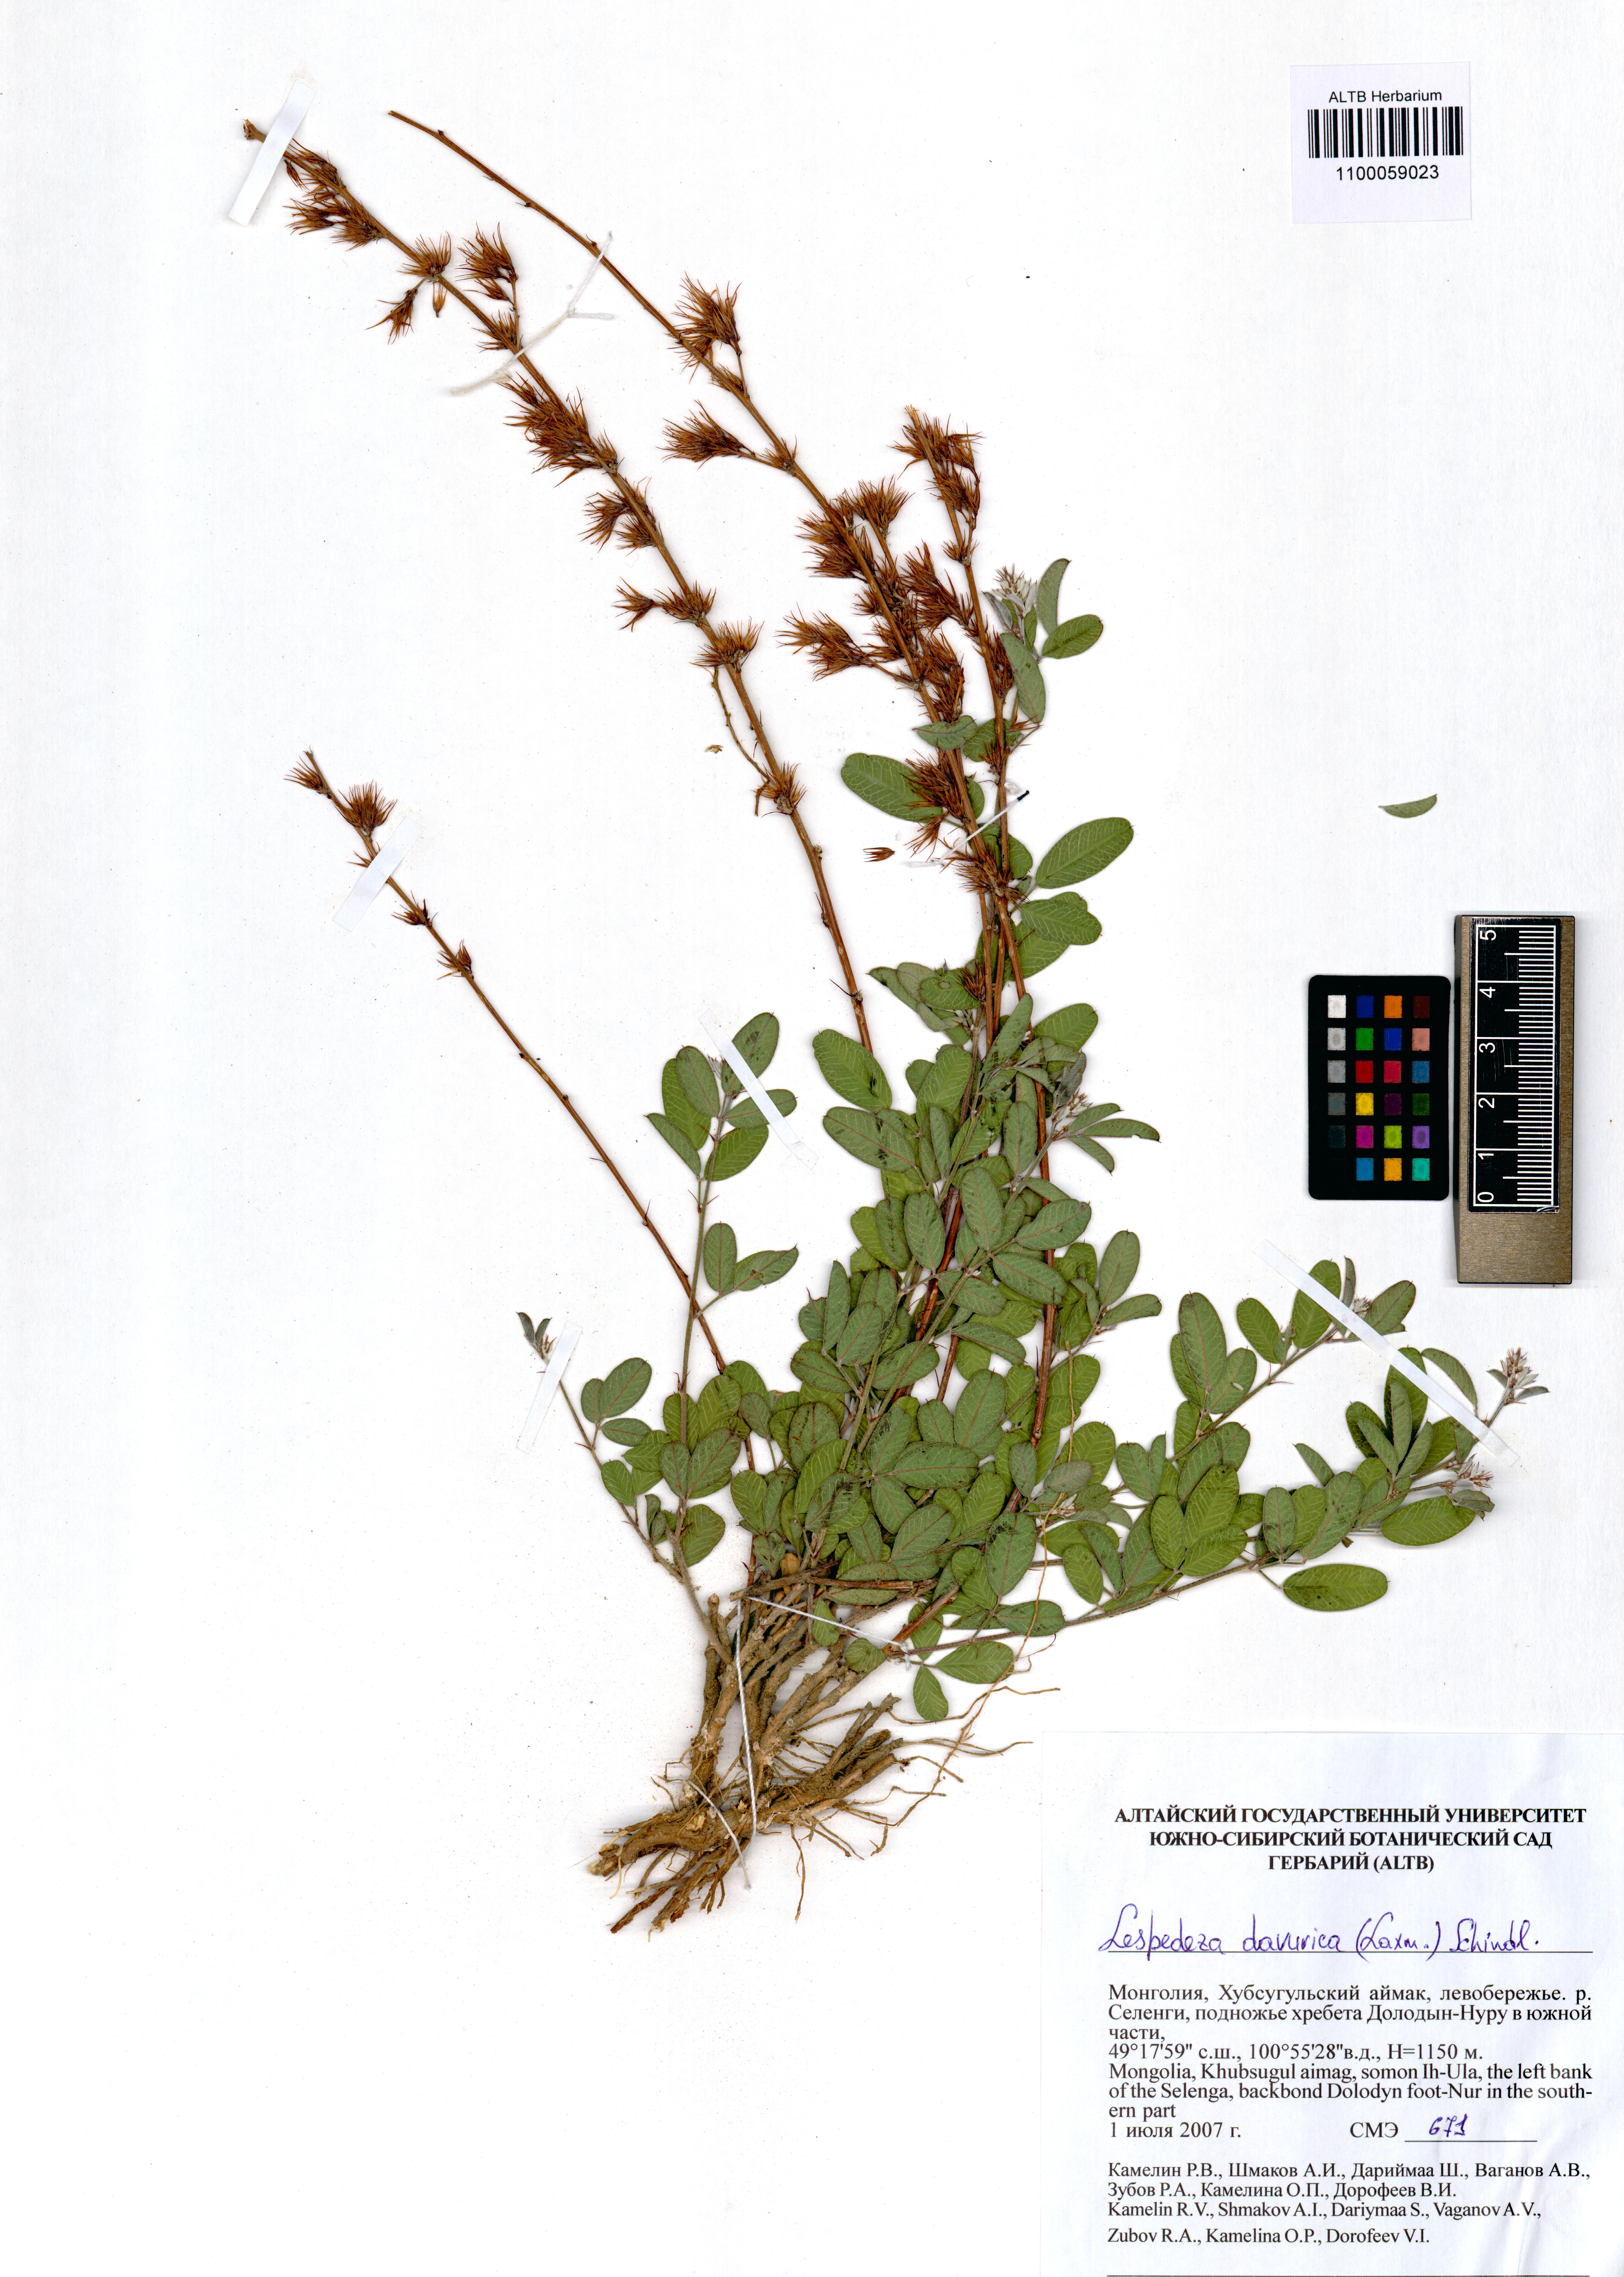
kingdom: Plantae
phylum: Tracheophyta
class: Magnoliopsida
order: Fabales
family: Fabaceae
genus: Lespedeza
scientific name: Lespedeza daurica
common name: Dahurian lespedeza
